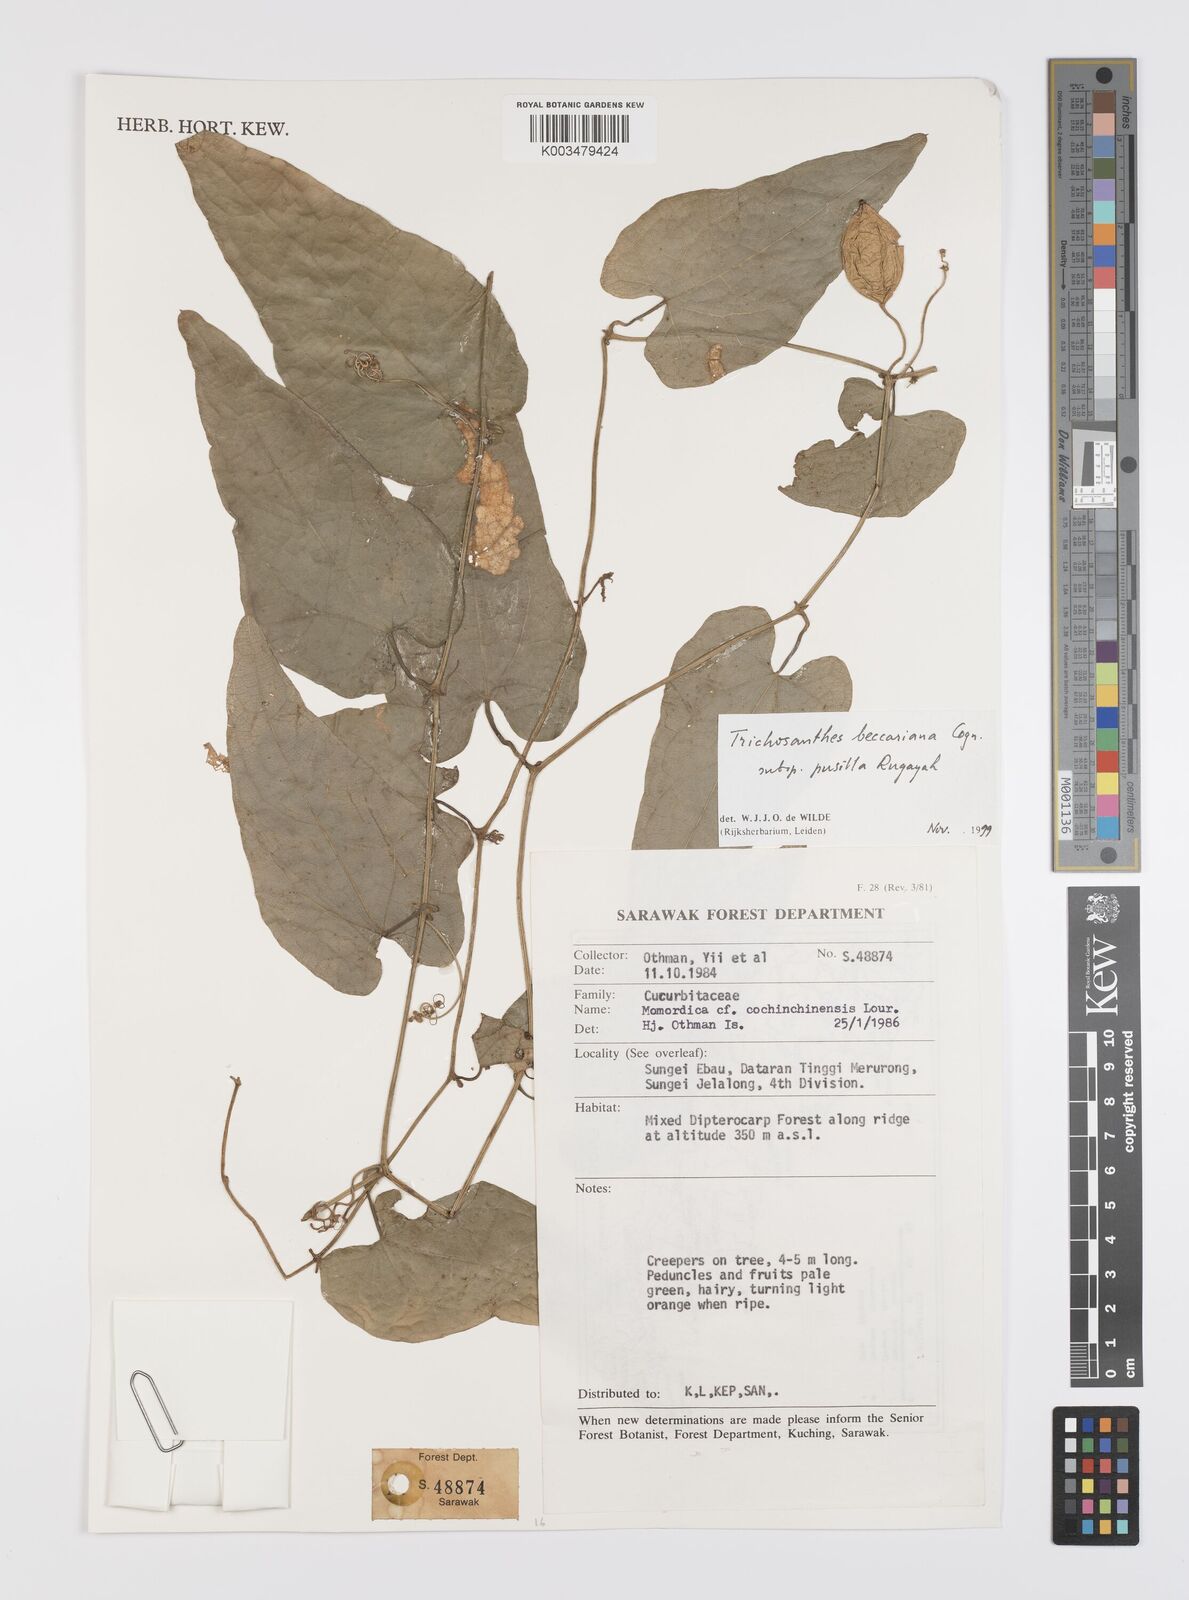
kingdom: Plantae
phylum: Tracheophyta
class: Magnoliopsida
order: Cucurbitales
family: Cucurbitaceae
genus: Trichosanthes
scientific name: Trichosanthes beccariana
